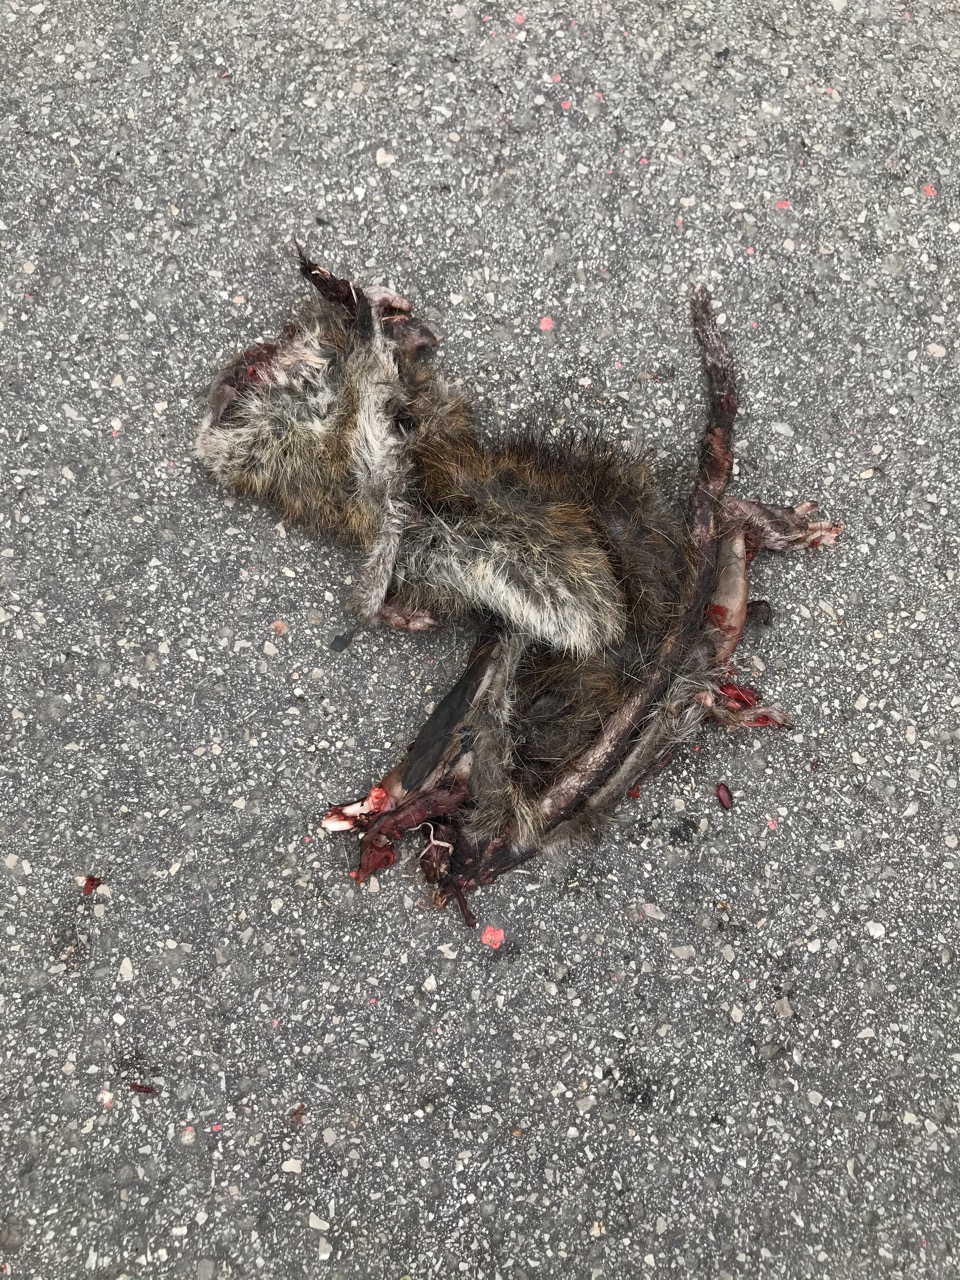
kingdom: Animalia
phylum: Chordata
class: Mammalia
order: Rodentia
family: Muridae
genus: Rattus
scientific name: Rattus norvegicus
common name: Brown rat
